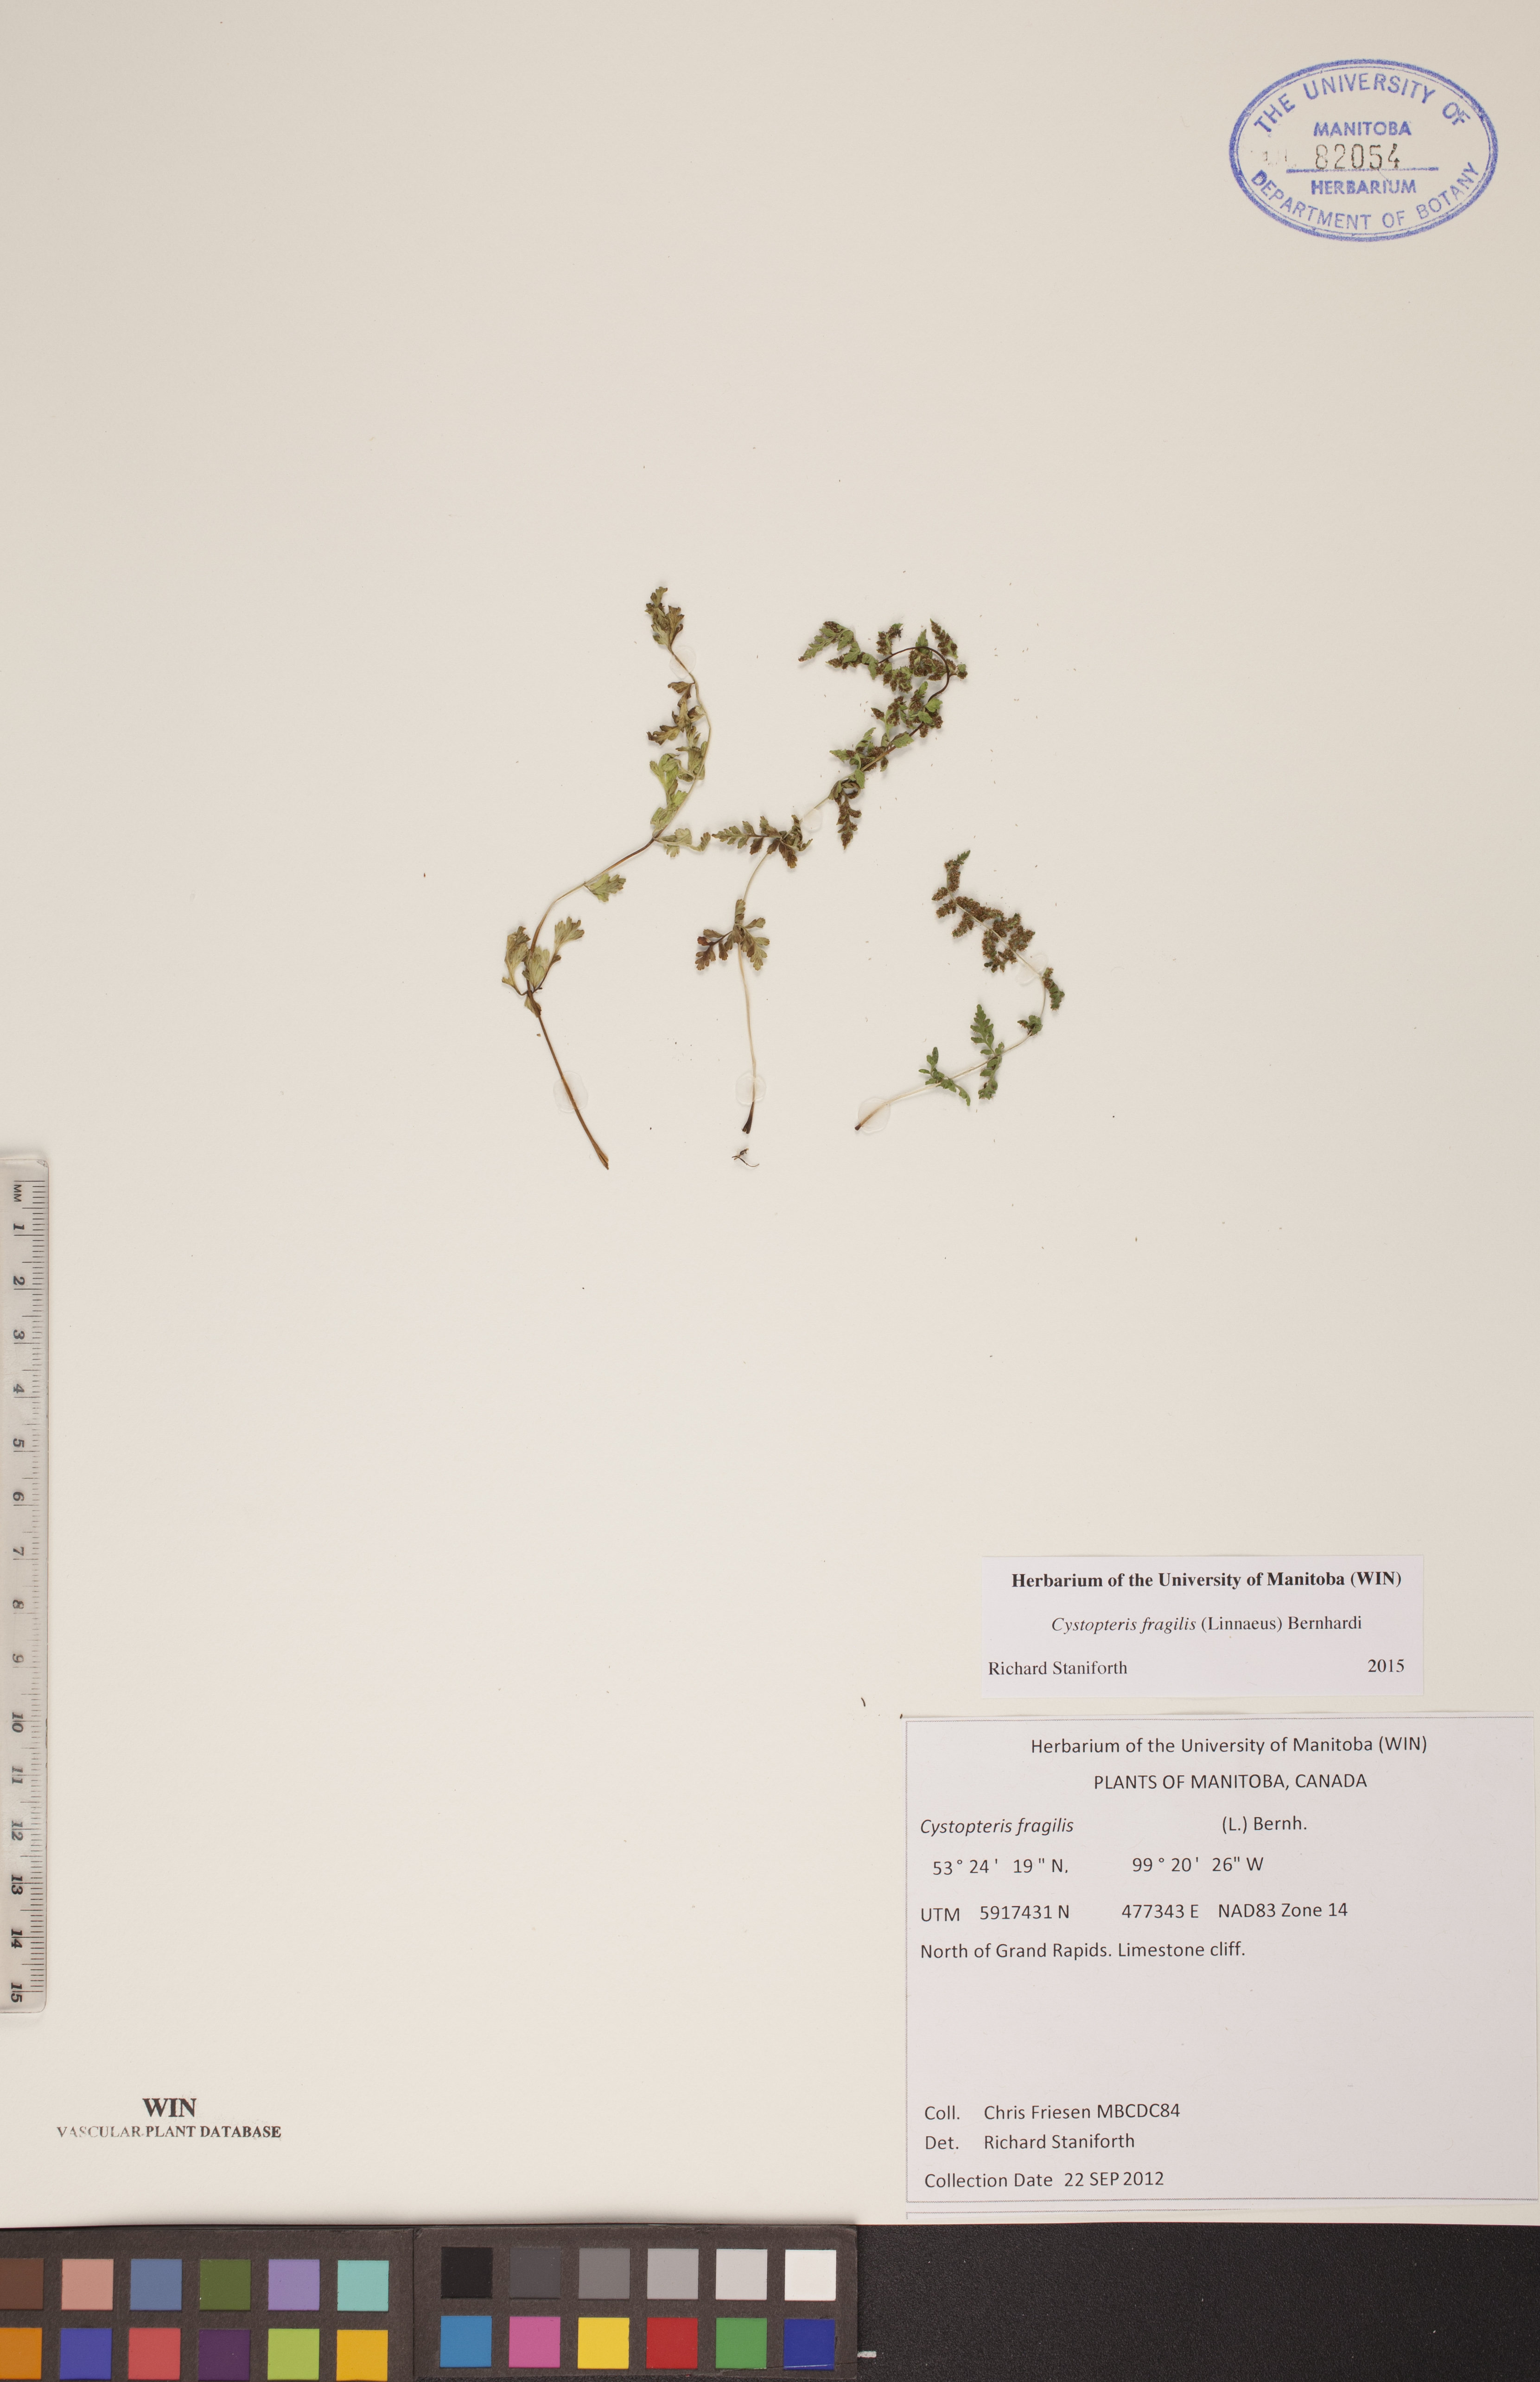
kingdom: Plantae
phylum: Tracheophyta
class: Polypodiopsida
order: Polypodiales
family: Cystopteridaceae
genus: Cystopteris
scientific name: Cystopteris fragilis
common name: Brittle bladder fern
